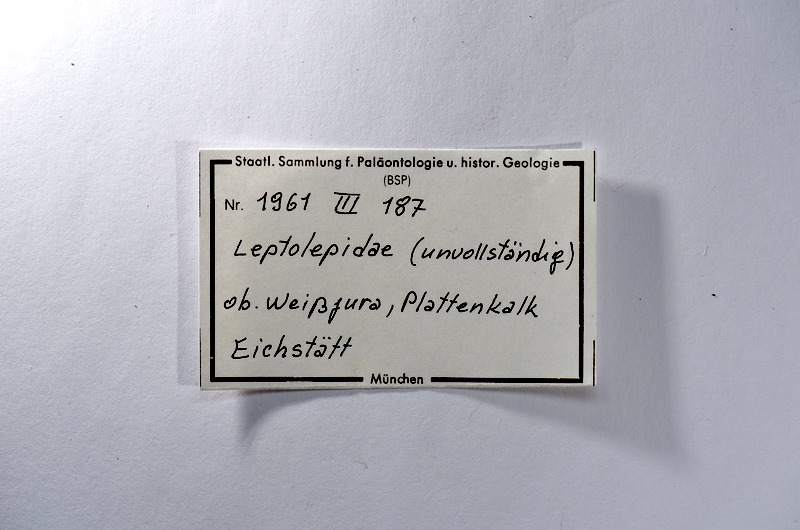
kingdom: Animalia
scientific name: Animalia
